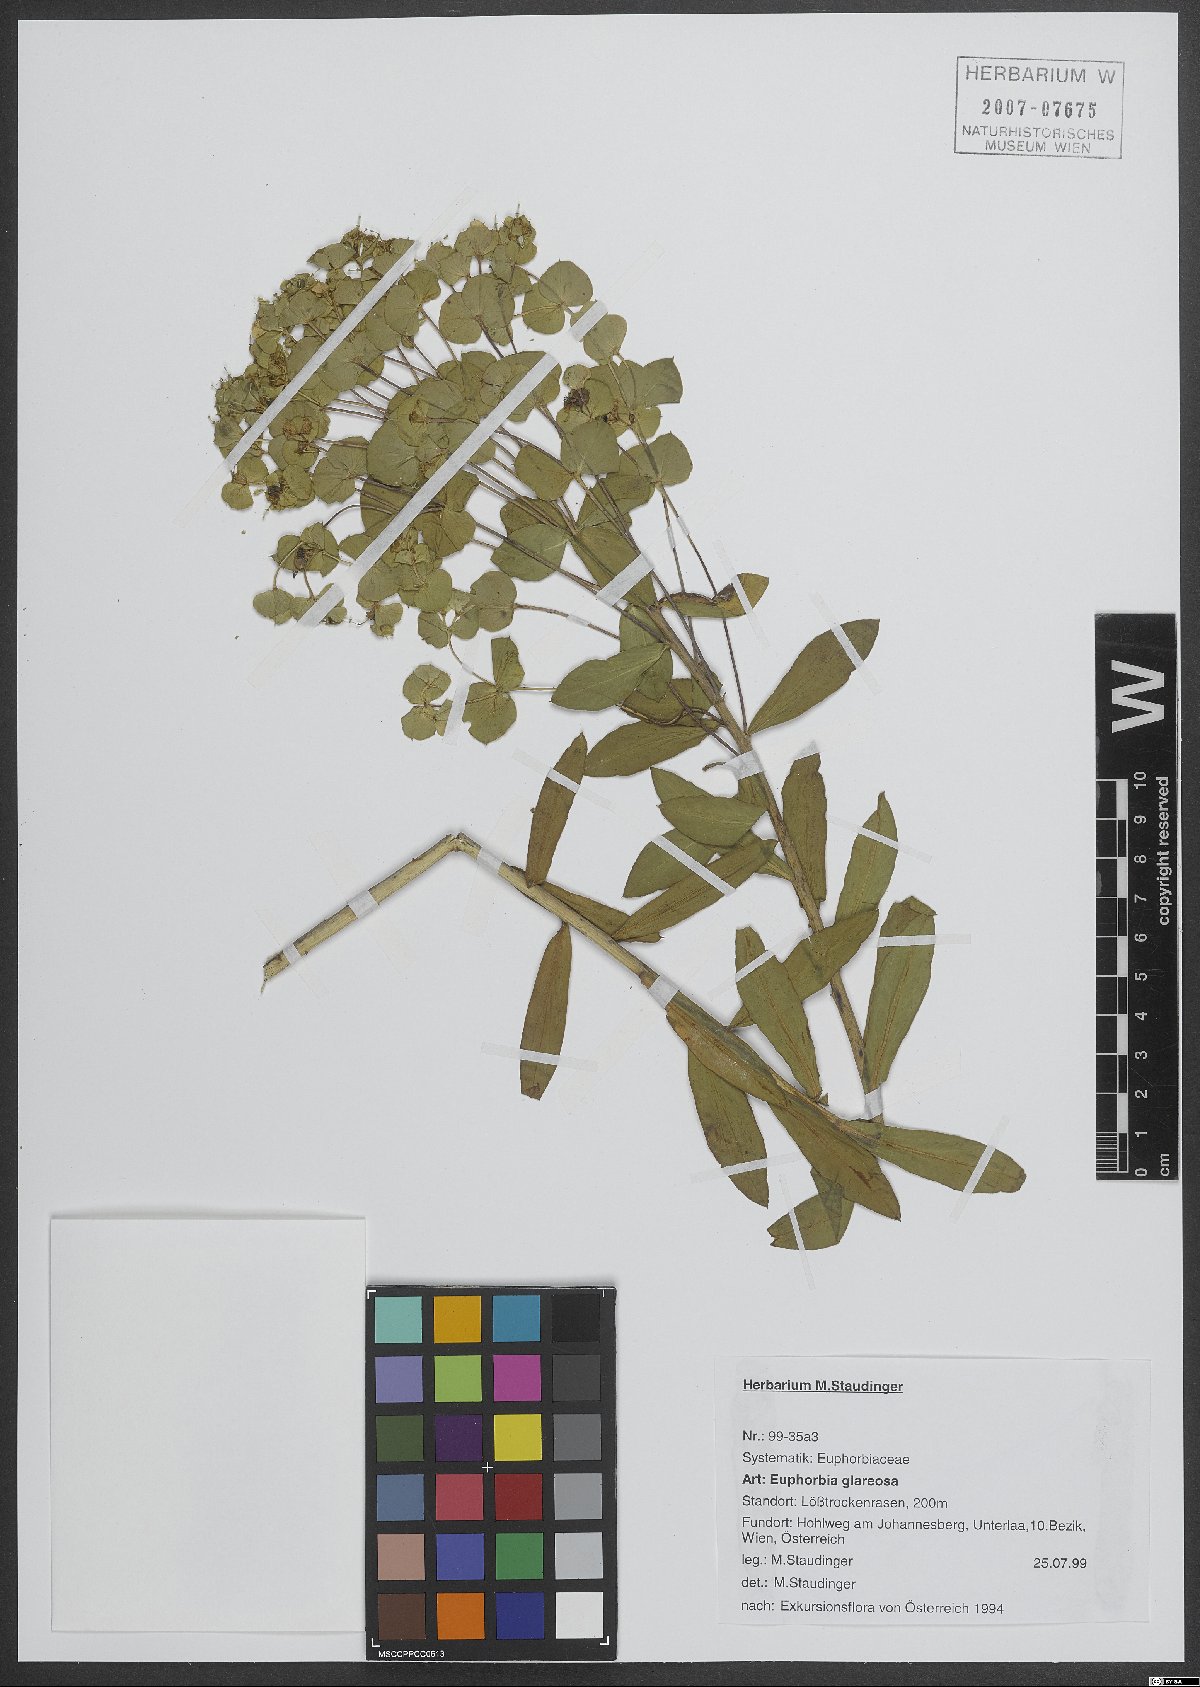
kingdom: Plantae
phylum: Tracheophyta
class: Magnoliopsida
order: Malpighiales
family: Euphorbiaceae
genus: Euphorbia
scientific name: Euphorbia glareosa
